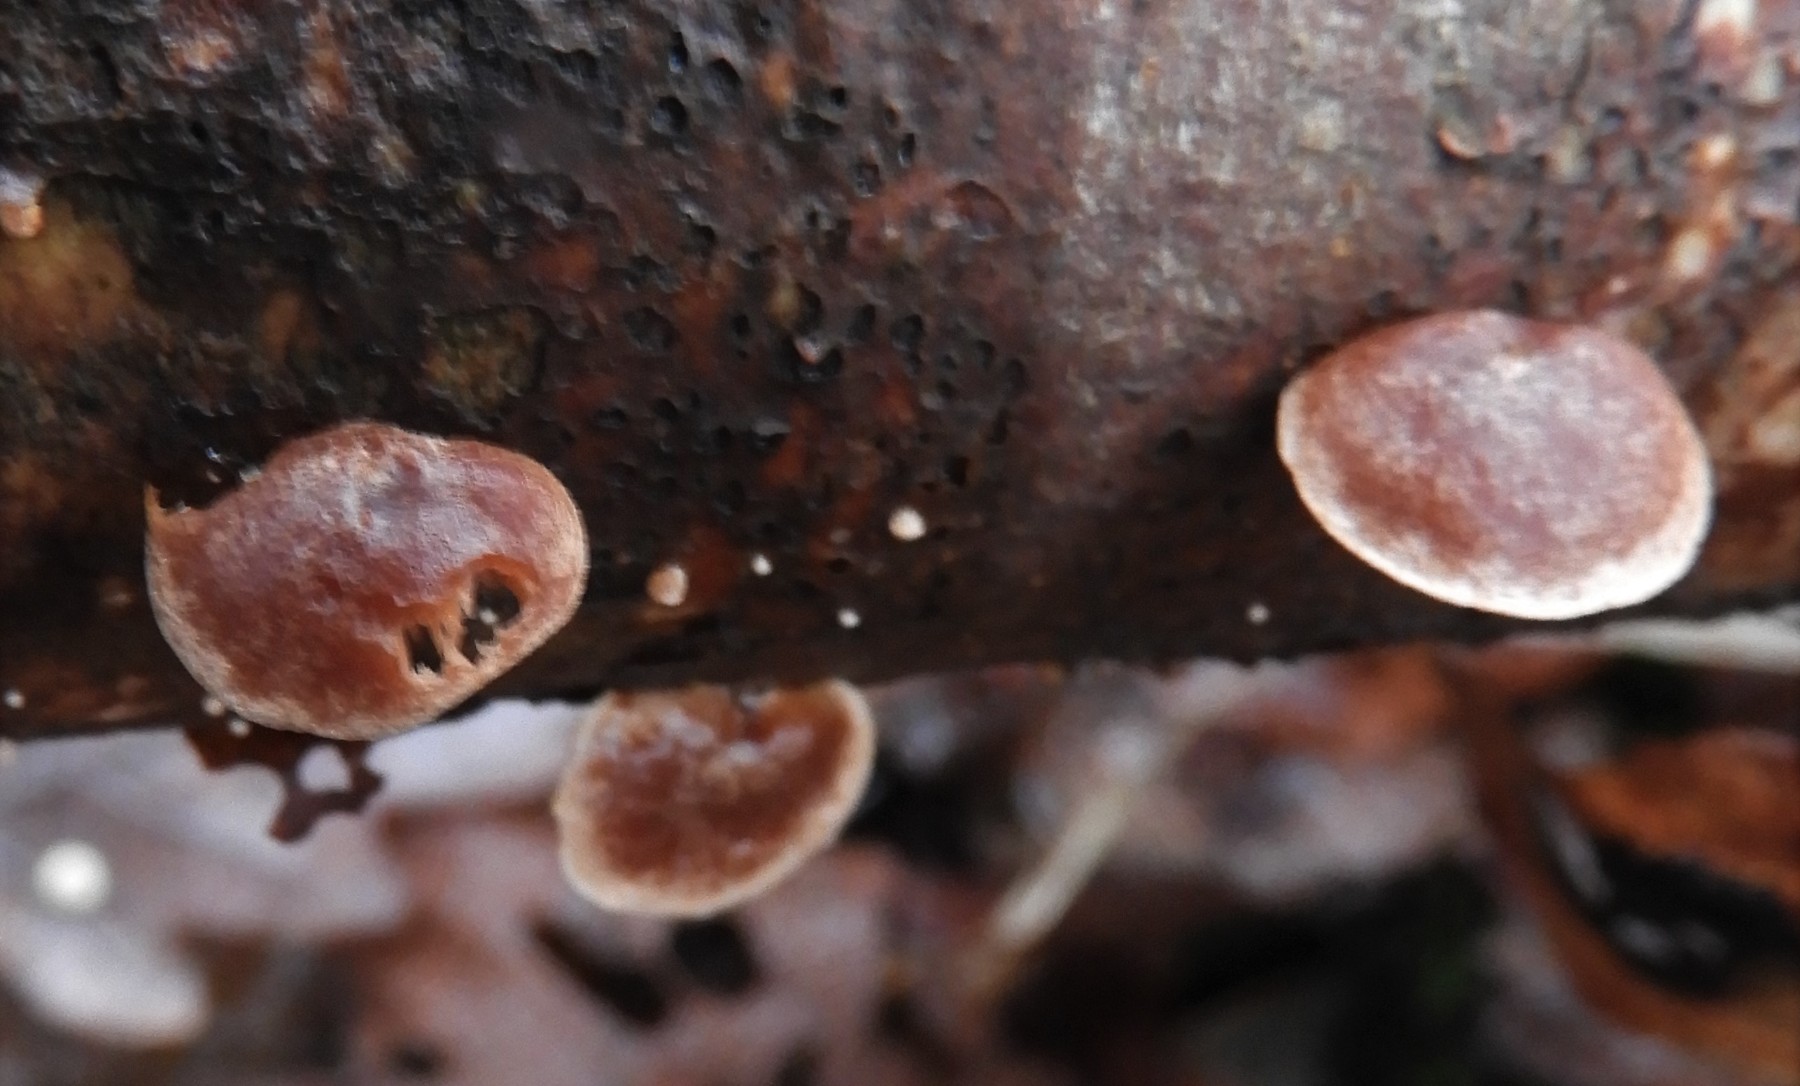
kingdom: Fungi
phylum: Basidiomycota
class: Agaricomycetes
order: Agaricales
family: Strophariaceae
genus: Deconica
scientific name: Deconica horizontalis
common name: ved-stråhat
